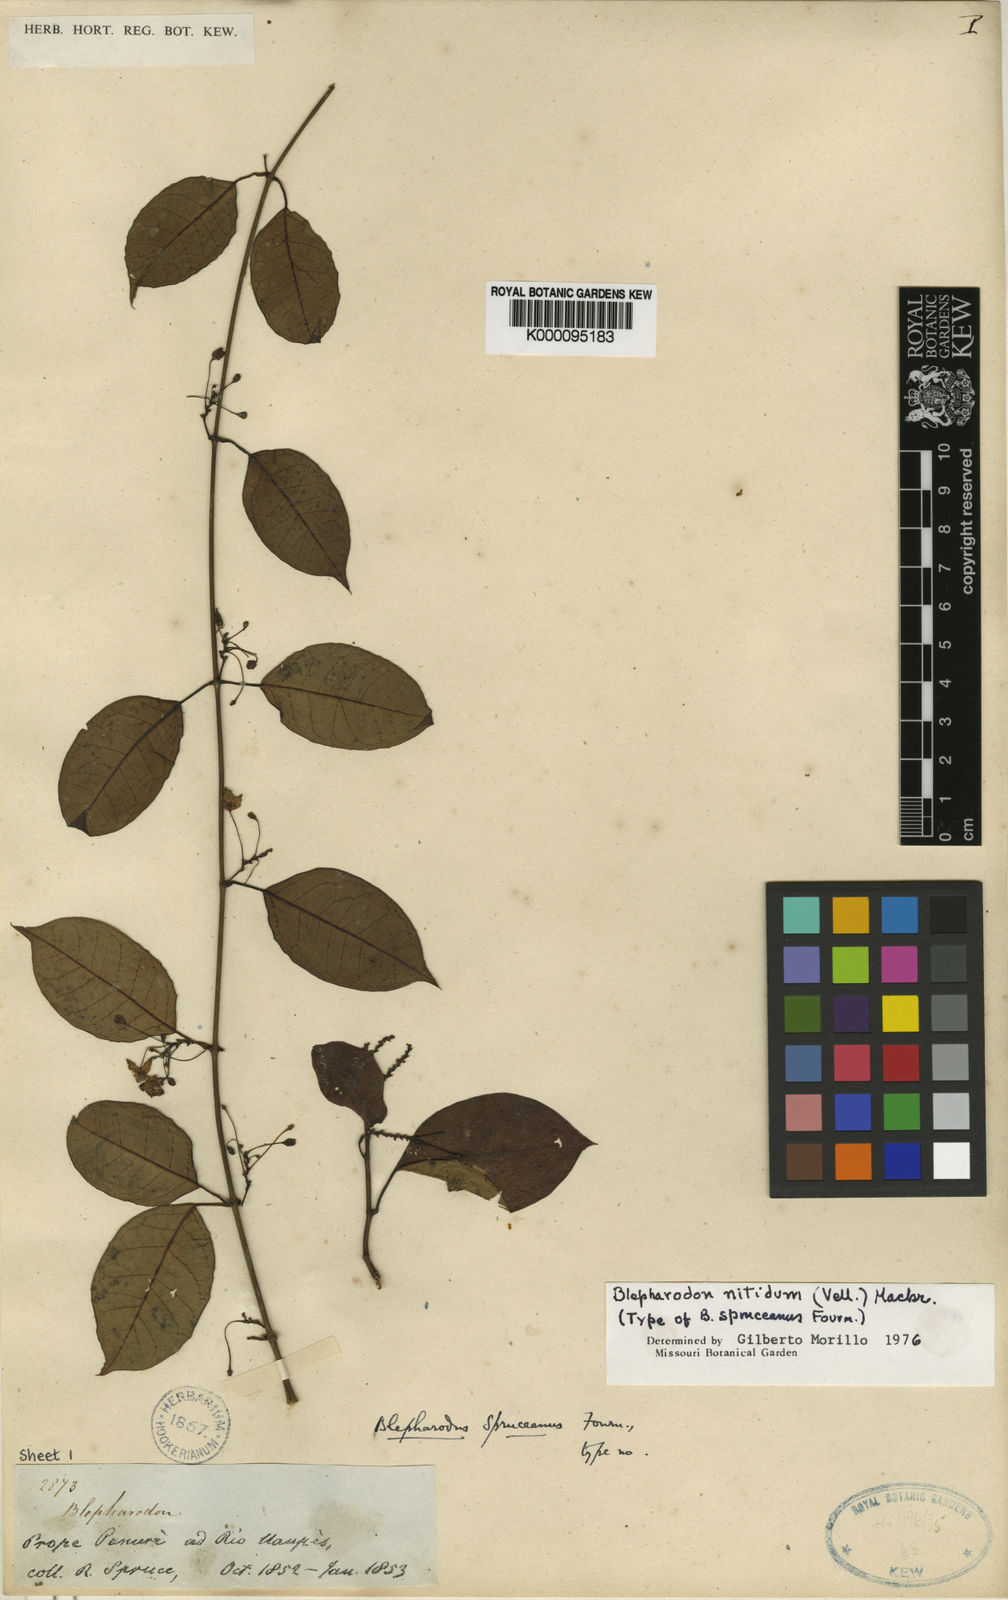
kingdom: Plantae
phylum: Tracheophyta
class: Magnoliopsida
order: Gentianales
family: Apocynaceae
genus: Blepharodon
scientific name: Blepharodon pictum
